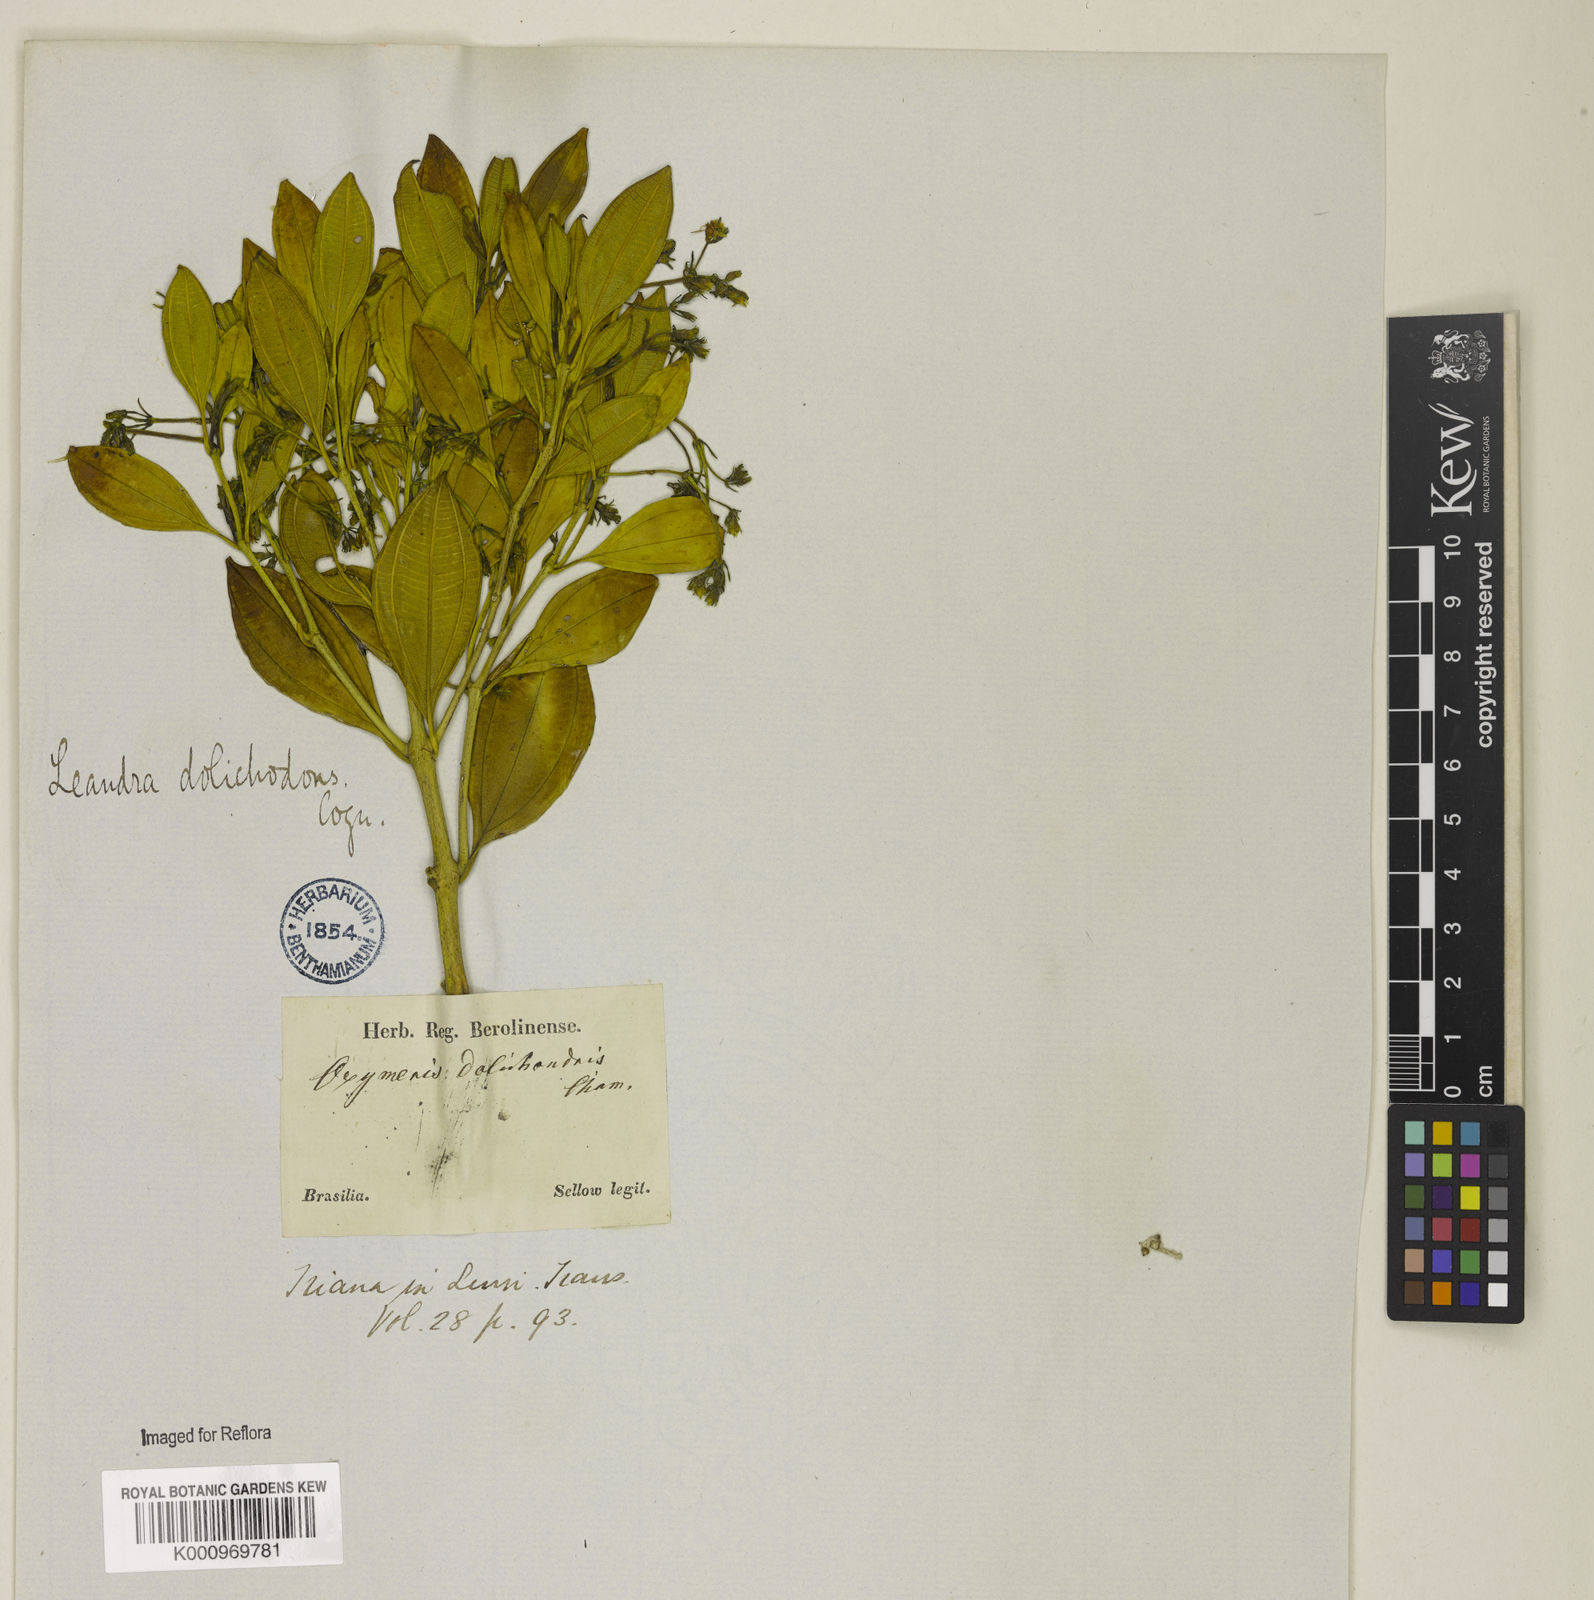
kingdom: Plantae
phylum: Tracheophyta
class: Magnoliopsida
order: Myrtales
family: Melastomataceae
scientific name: Melastomataceae
